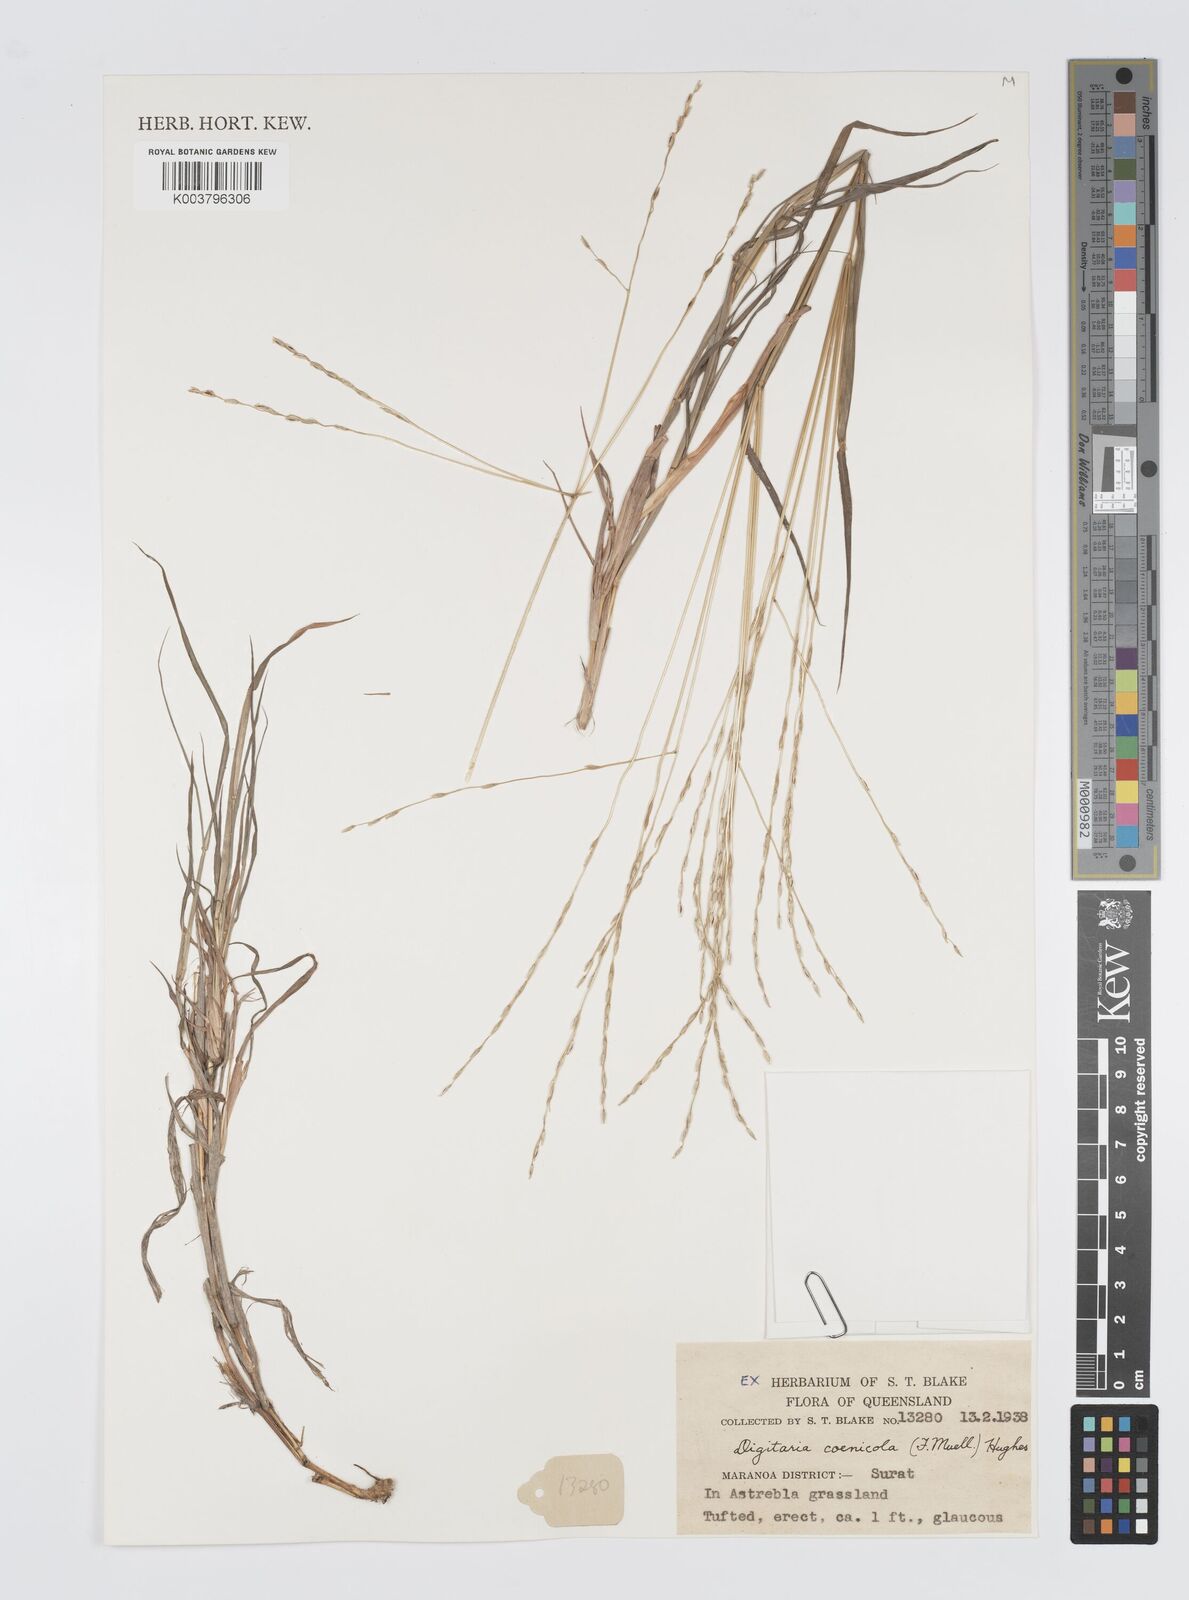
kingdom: Plantae
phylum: Tracheophyta
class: Liliopsida
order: Poales
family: Poaceae
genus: Digitaria
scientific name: Digitaria coenicola
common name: Kanta grass
